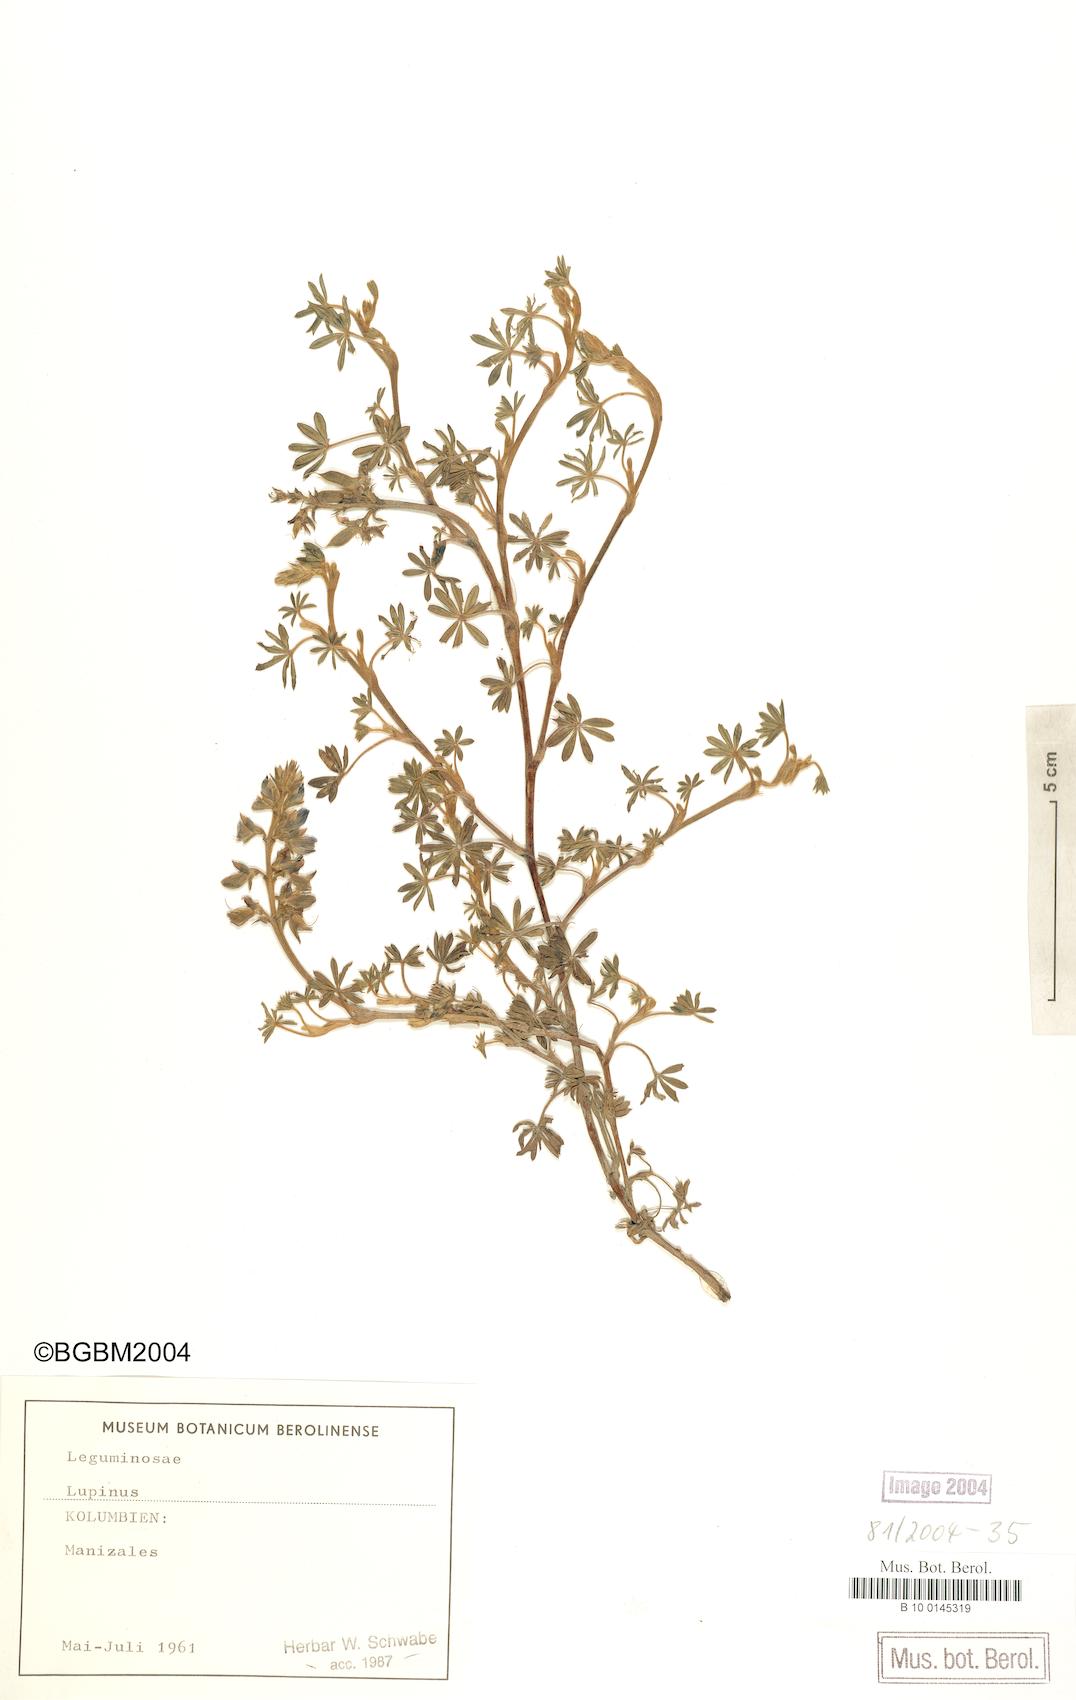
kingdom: Plantae
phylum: Tracheophyta
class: Magnoliopsida
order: Fabales
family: Fabaceae
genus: Lupinus
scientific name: Lupinus
